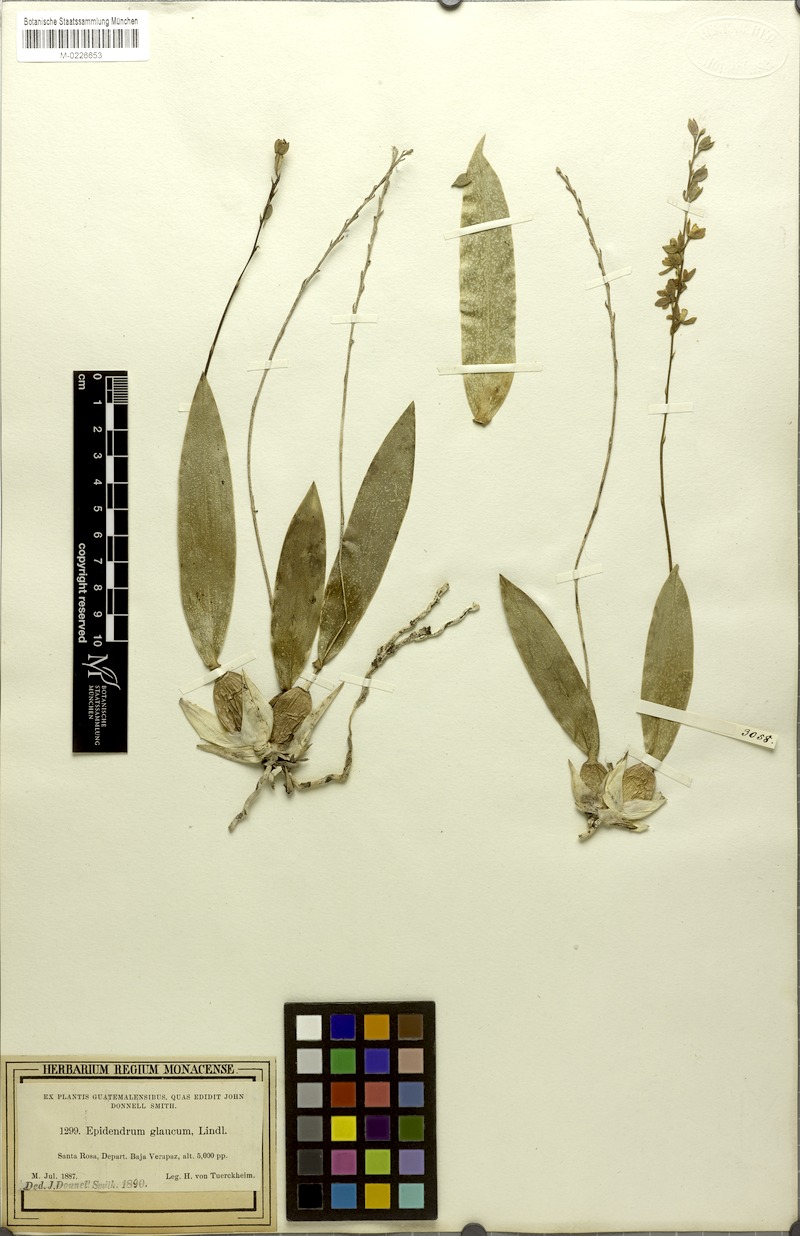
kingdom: Plantae
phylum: Tracheophyta
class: Liliopsida
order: Asparagales
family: Orchidaceae
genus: Prosthechea
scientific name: Prosthechea glauca
